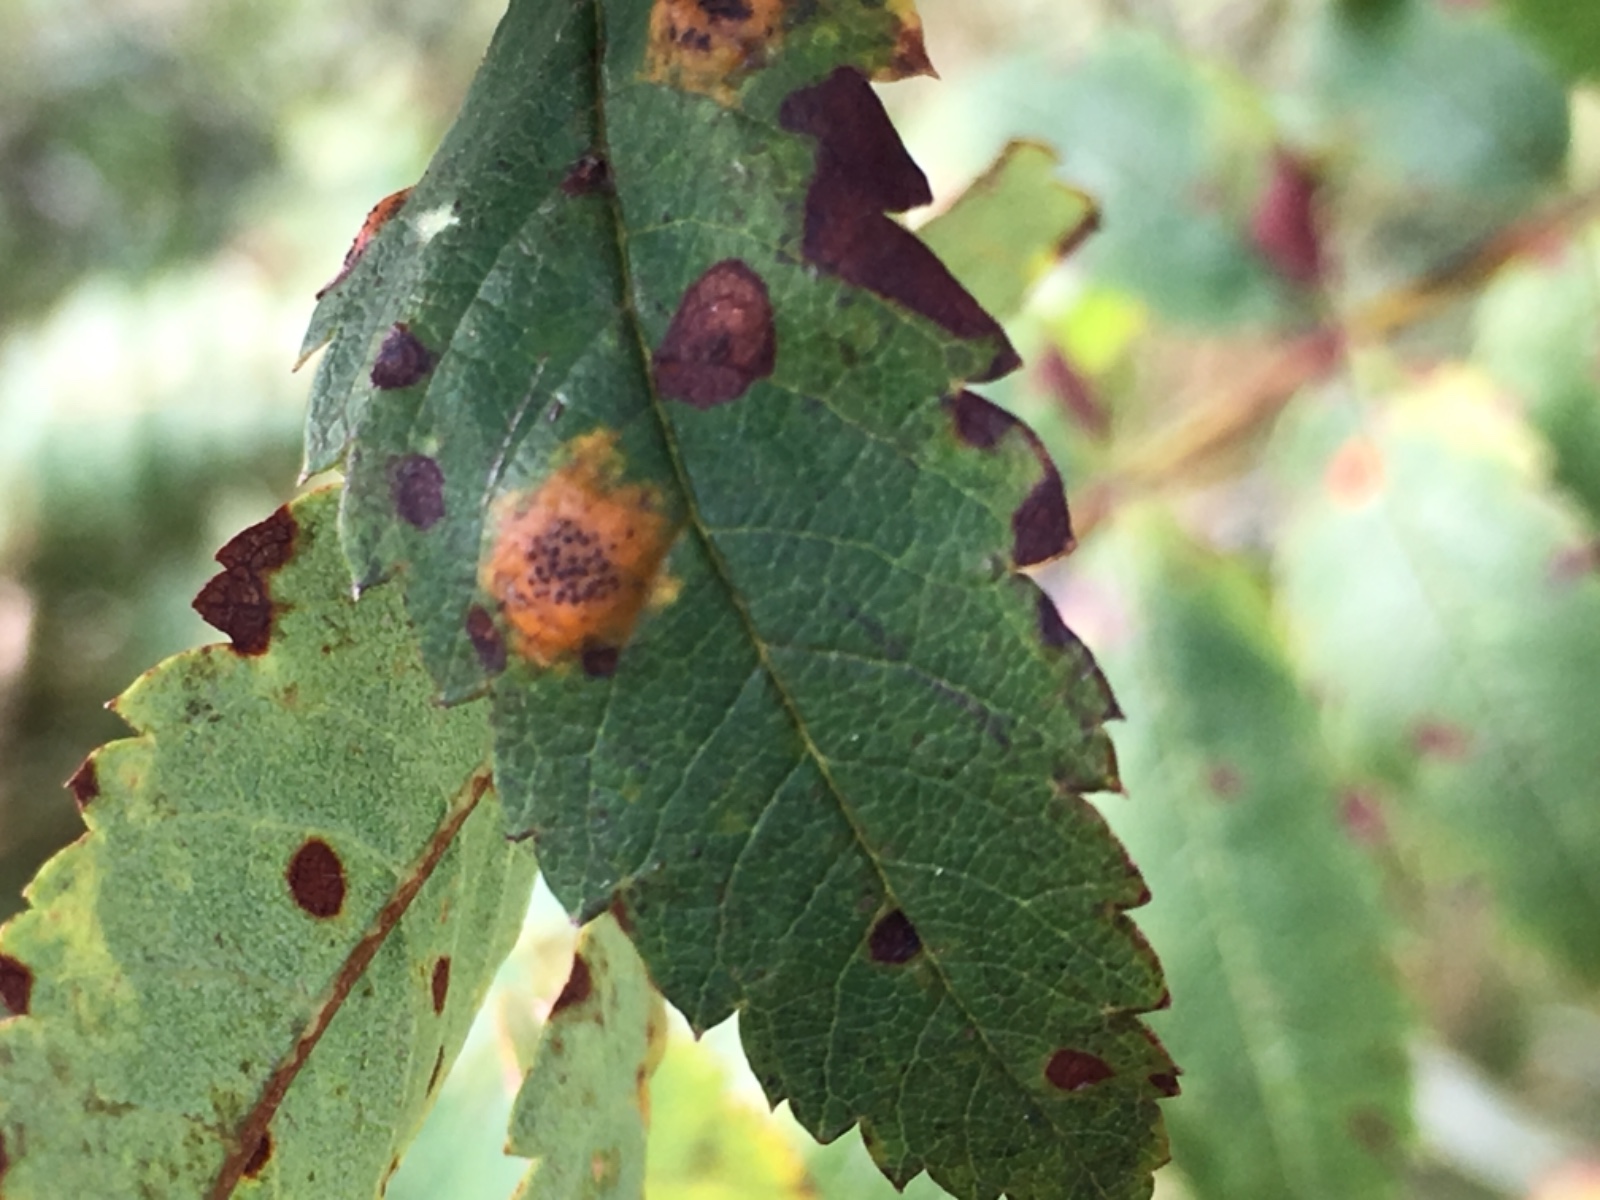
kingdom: Fungi
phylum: Basidiomycota
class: Pucciniomycetes
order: Pucciniales
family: Gymnosporangiaceae
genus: Gymnosporangium
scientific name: Gymnosporangium cornutum
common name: rønnehorn-bævrerust
